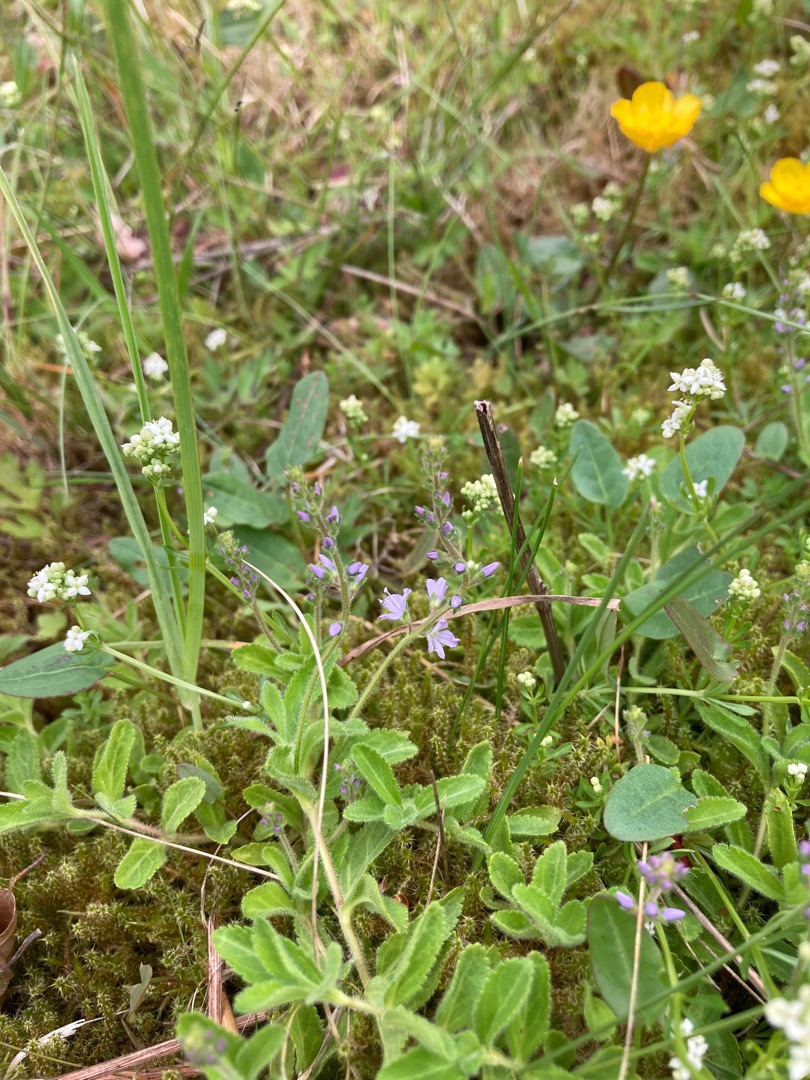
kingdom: Plantae
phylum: Tracheophyta
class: Magnoliopsida
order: Lamiales
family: Plantaginaceae
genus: Veronica
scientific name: Veronica officinalis
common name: Læge-ærenpris
